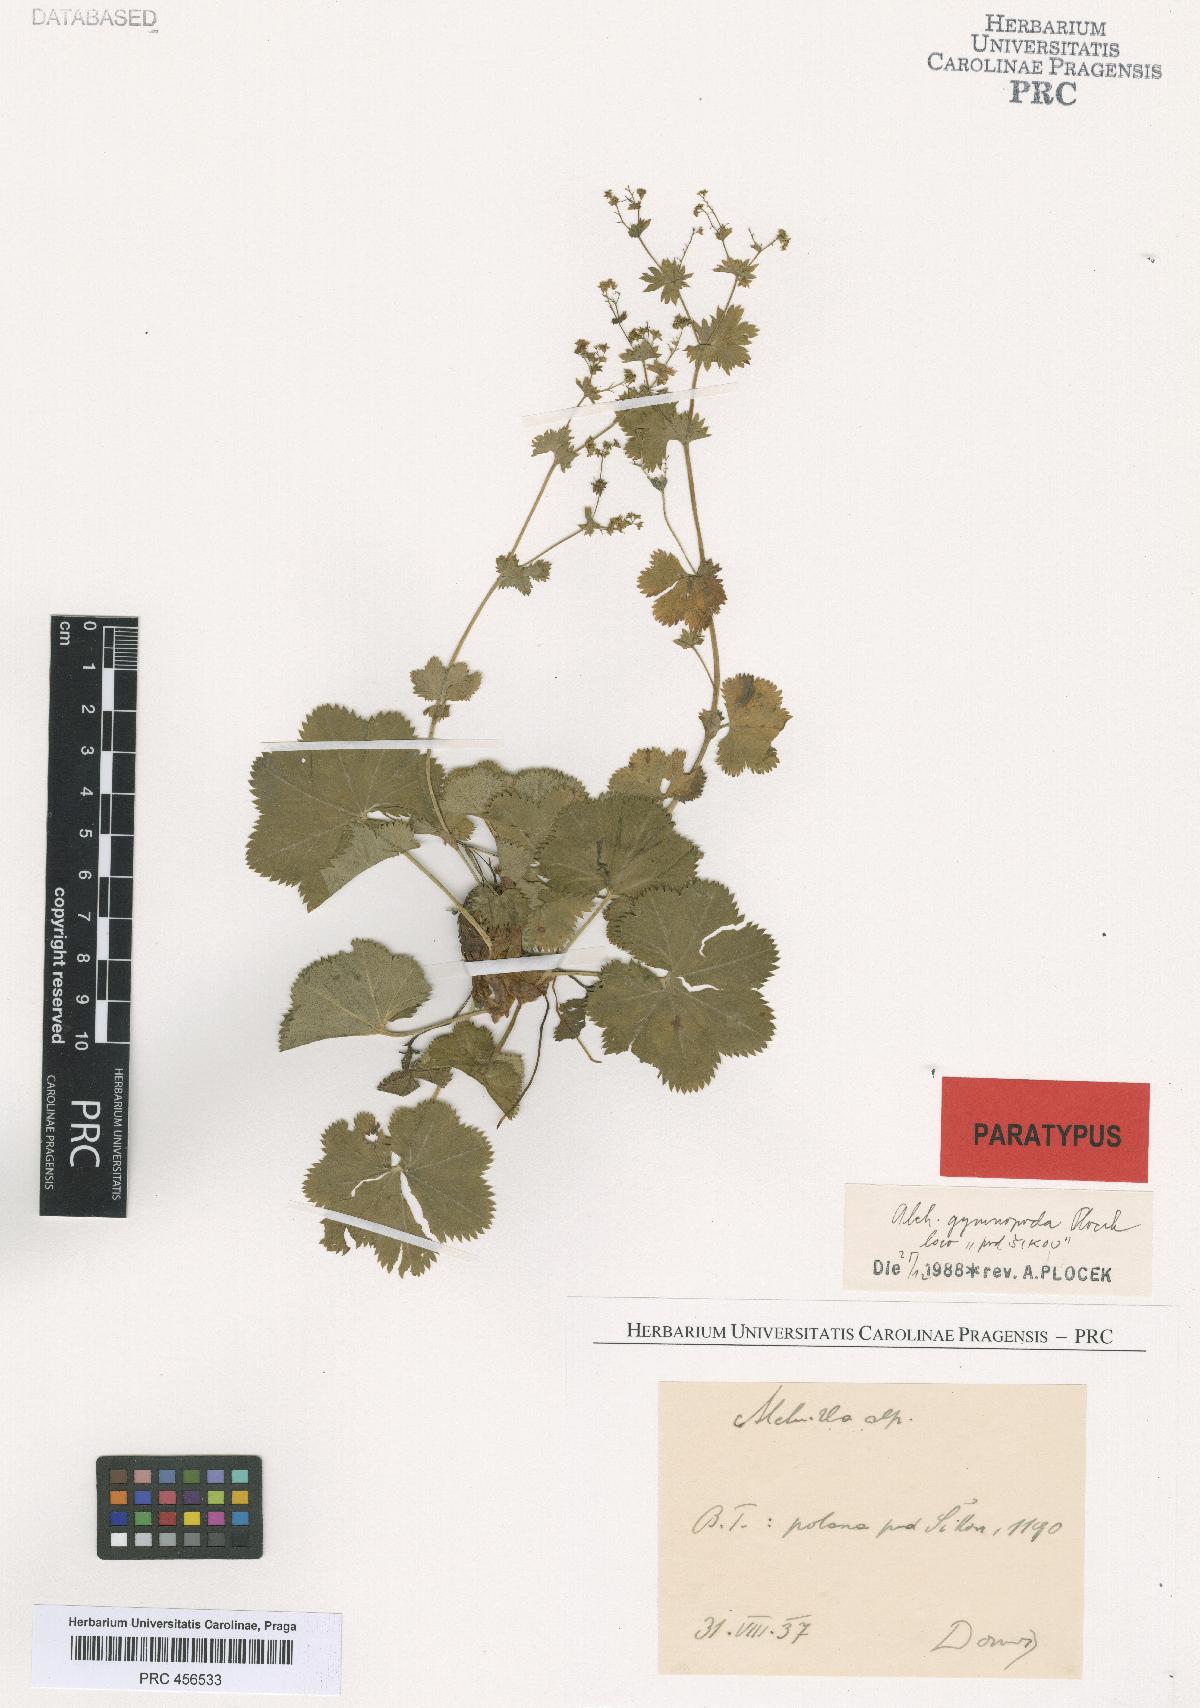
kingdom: Plantae
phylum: Tracheophyta
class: Magnoliopsida
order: Rosales
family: Rosaceae
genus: Alchemilla
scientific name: Alchemilla gymnopoda
